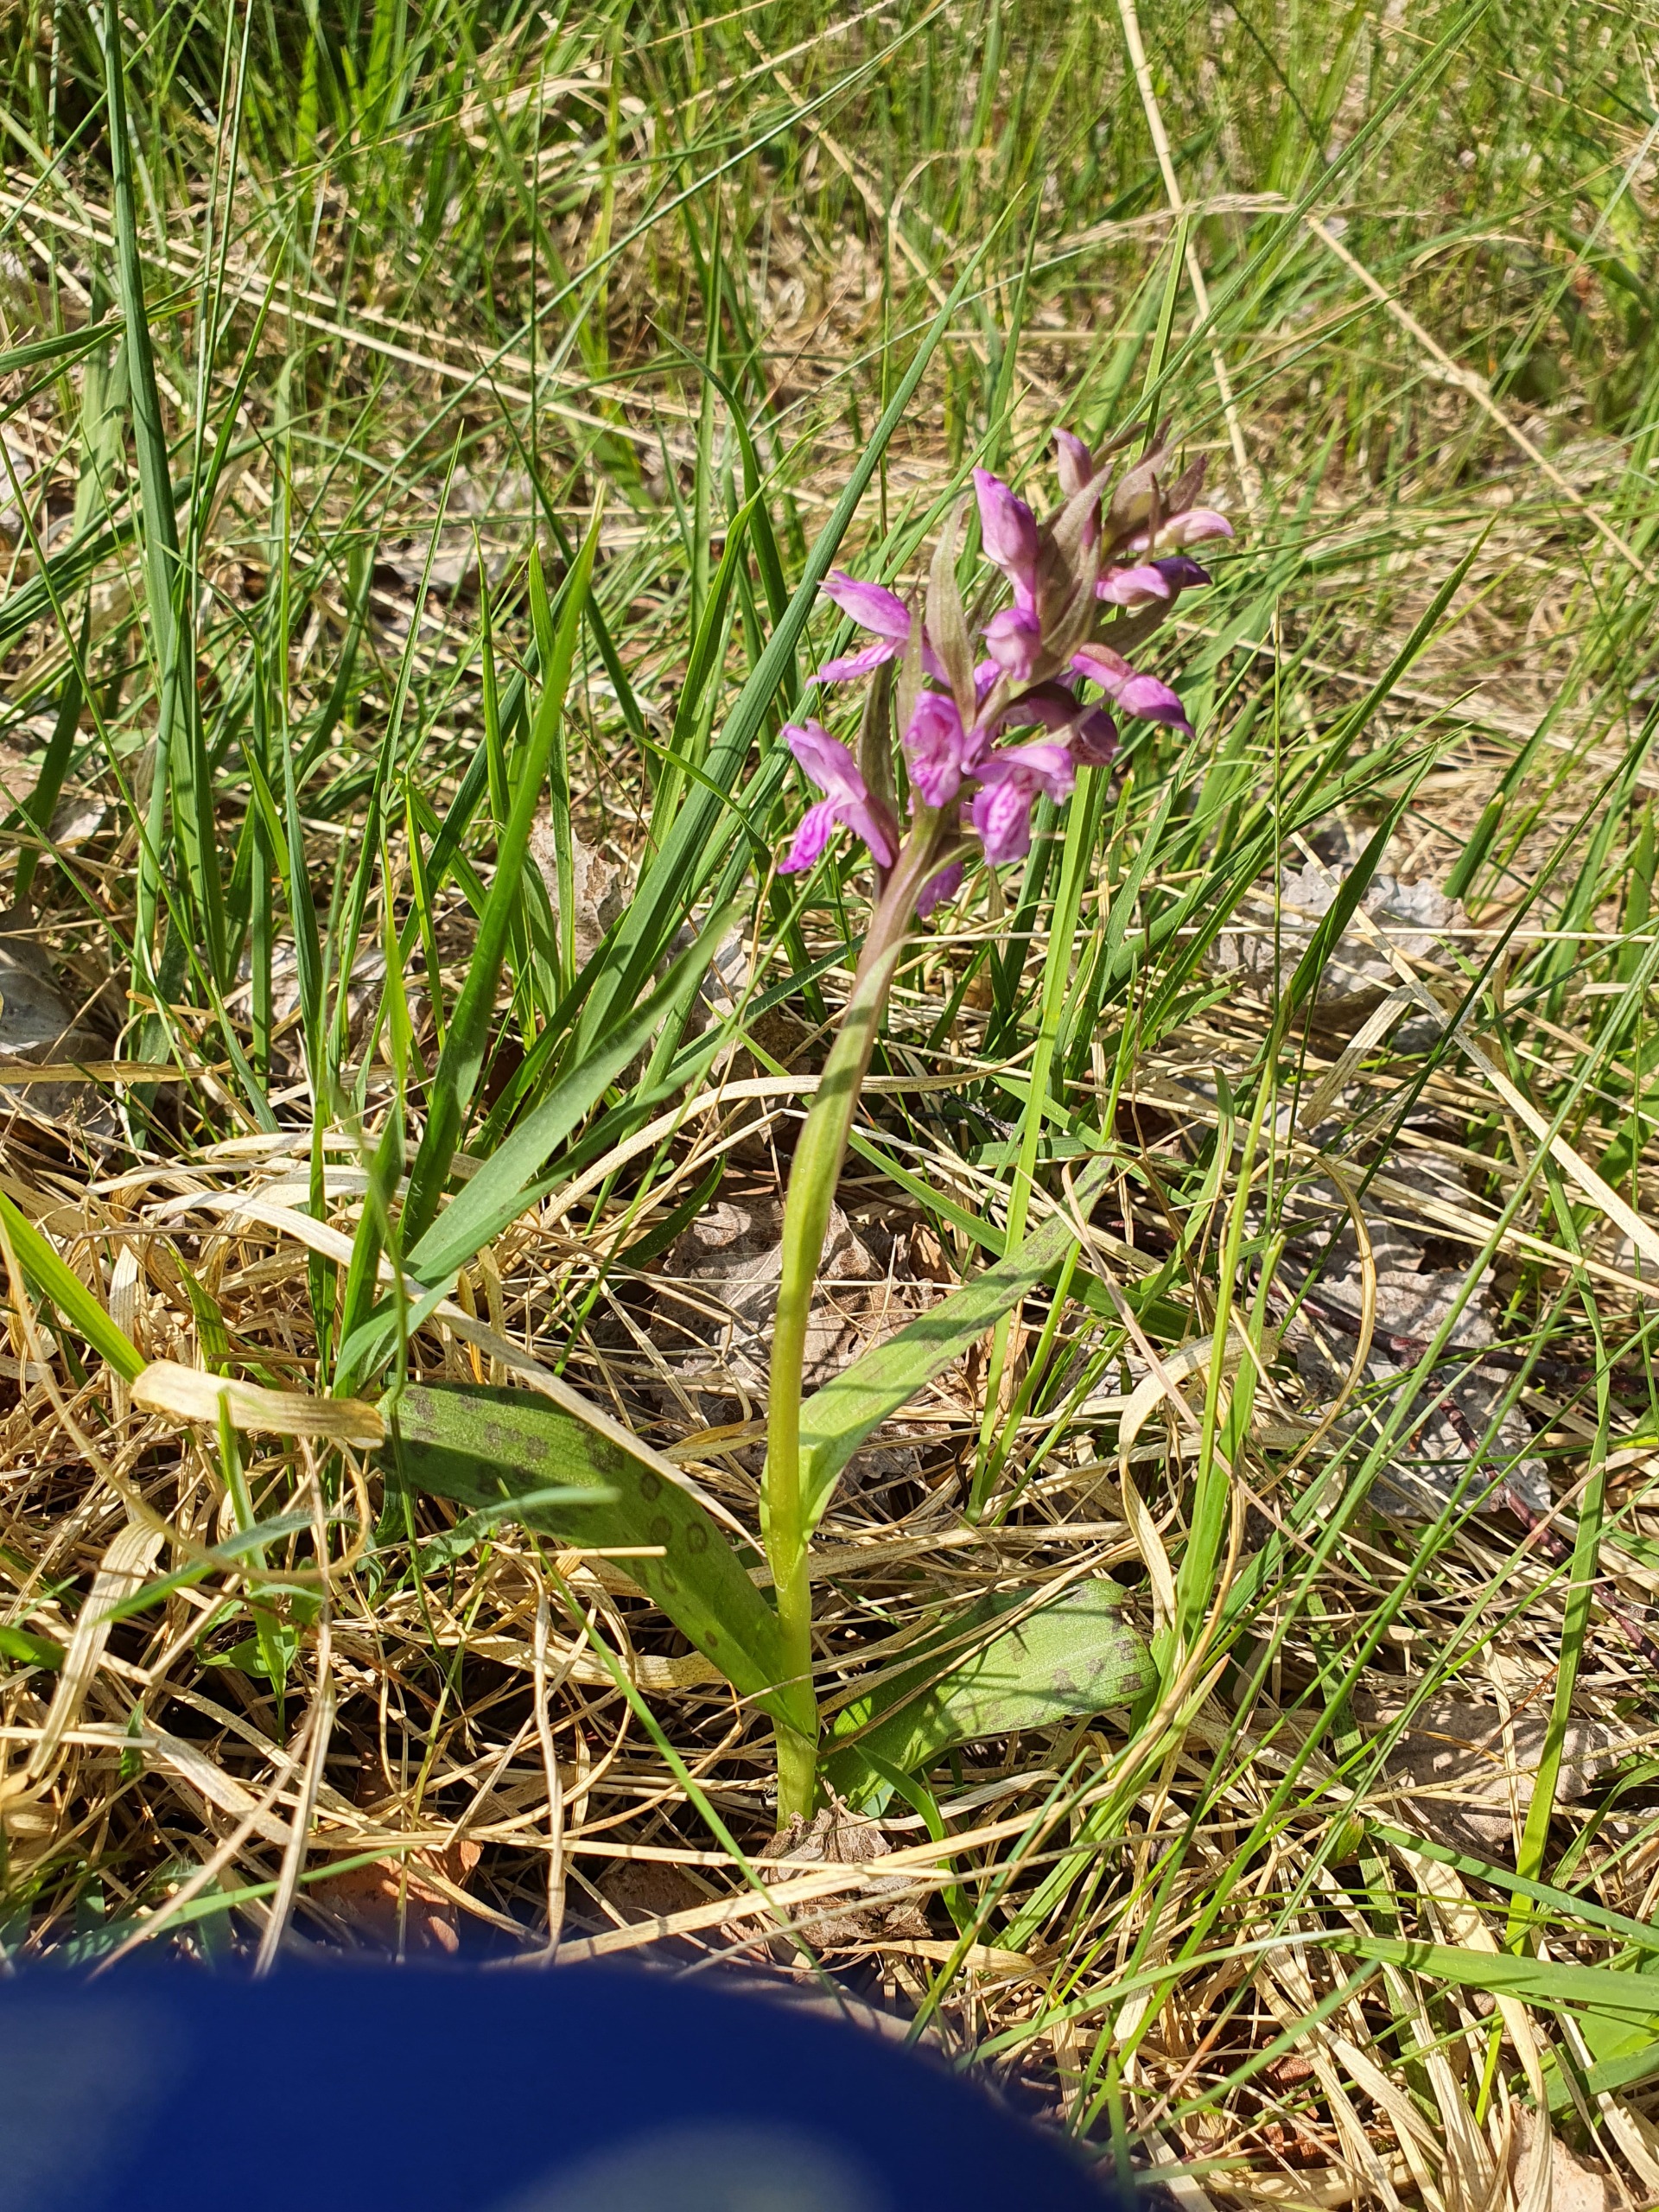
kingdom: Plantae
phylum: Tracheophyta
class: Liliopsida
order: Asparagales
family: Orchidaceae
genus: Dactylorhiza
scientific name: Dactylorhiza majalis
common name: Maj-gøgeurt
